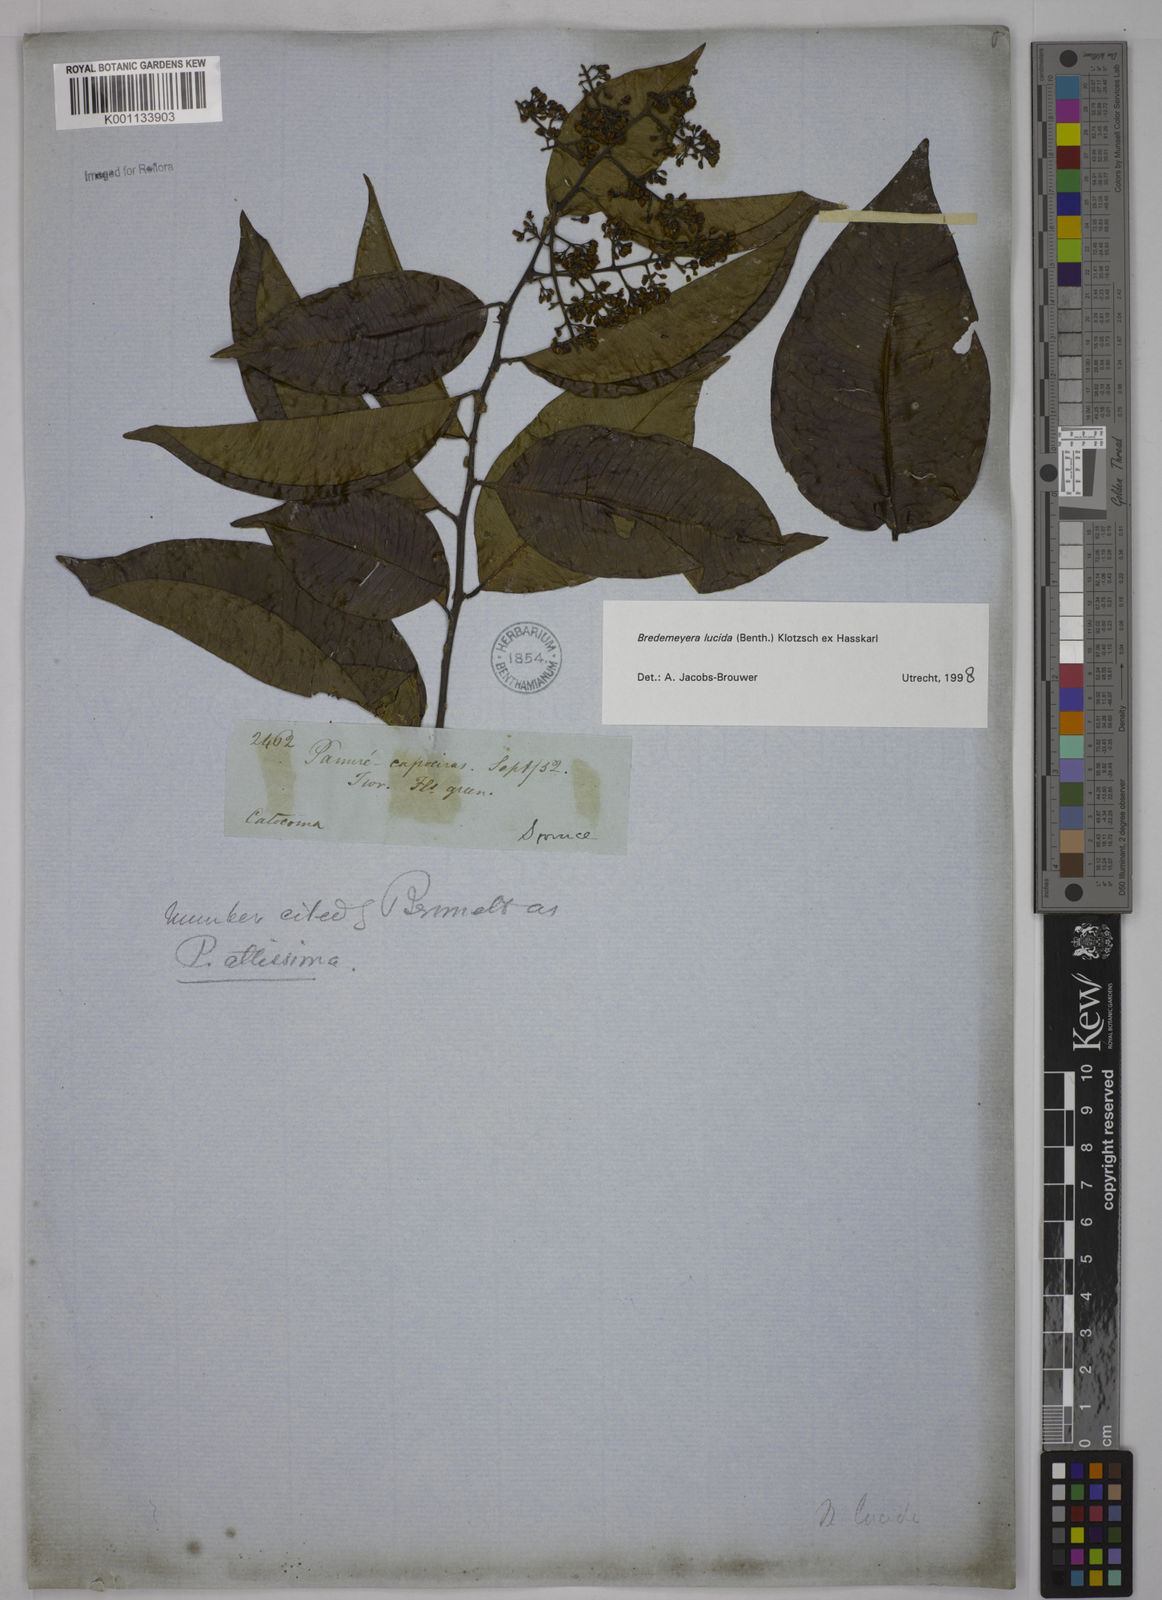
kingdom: Plantae
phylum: Tracheophyta
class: Magnoliopsida
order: Fabales
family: Polygalaceae
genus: Bredemeyera
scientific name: Bredemeyera lucida
